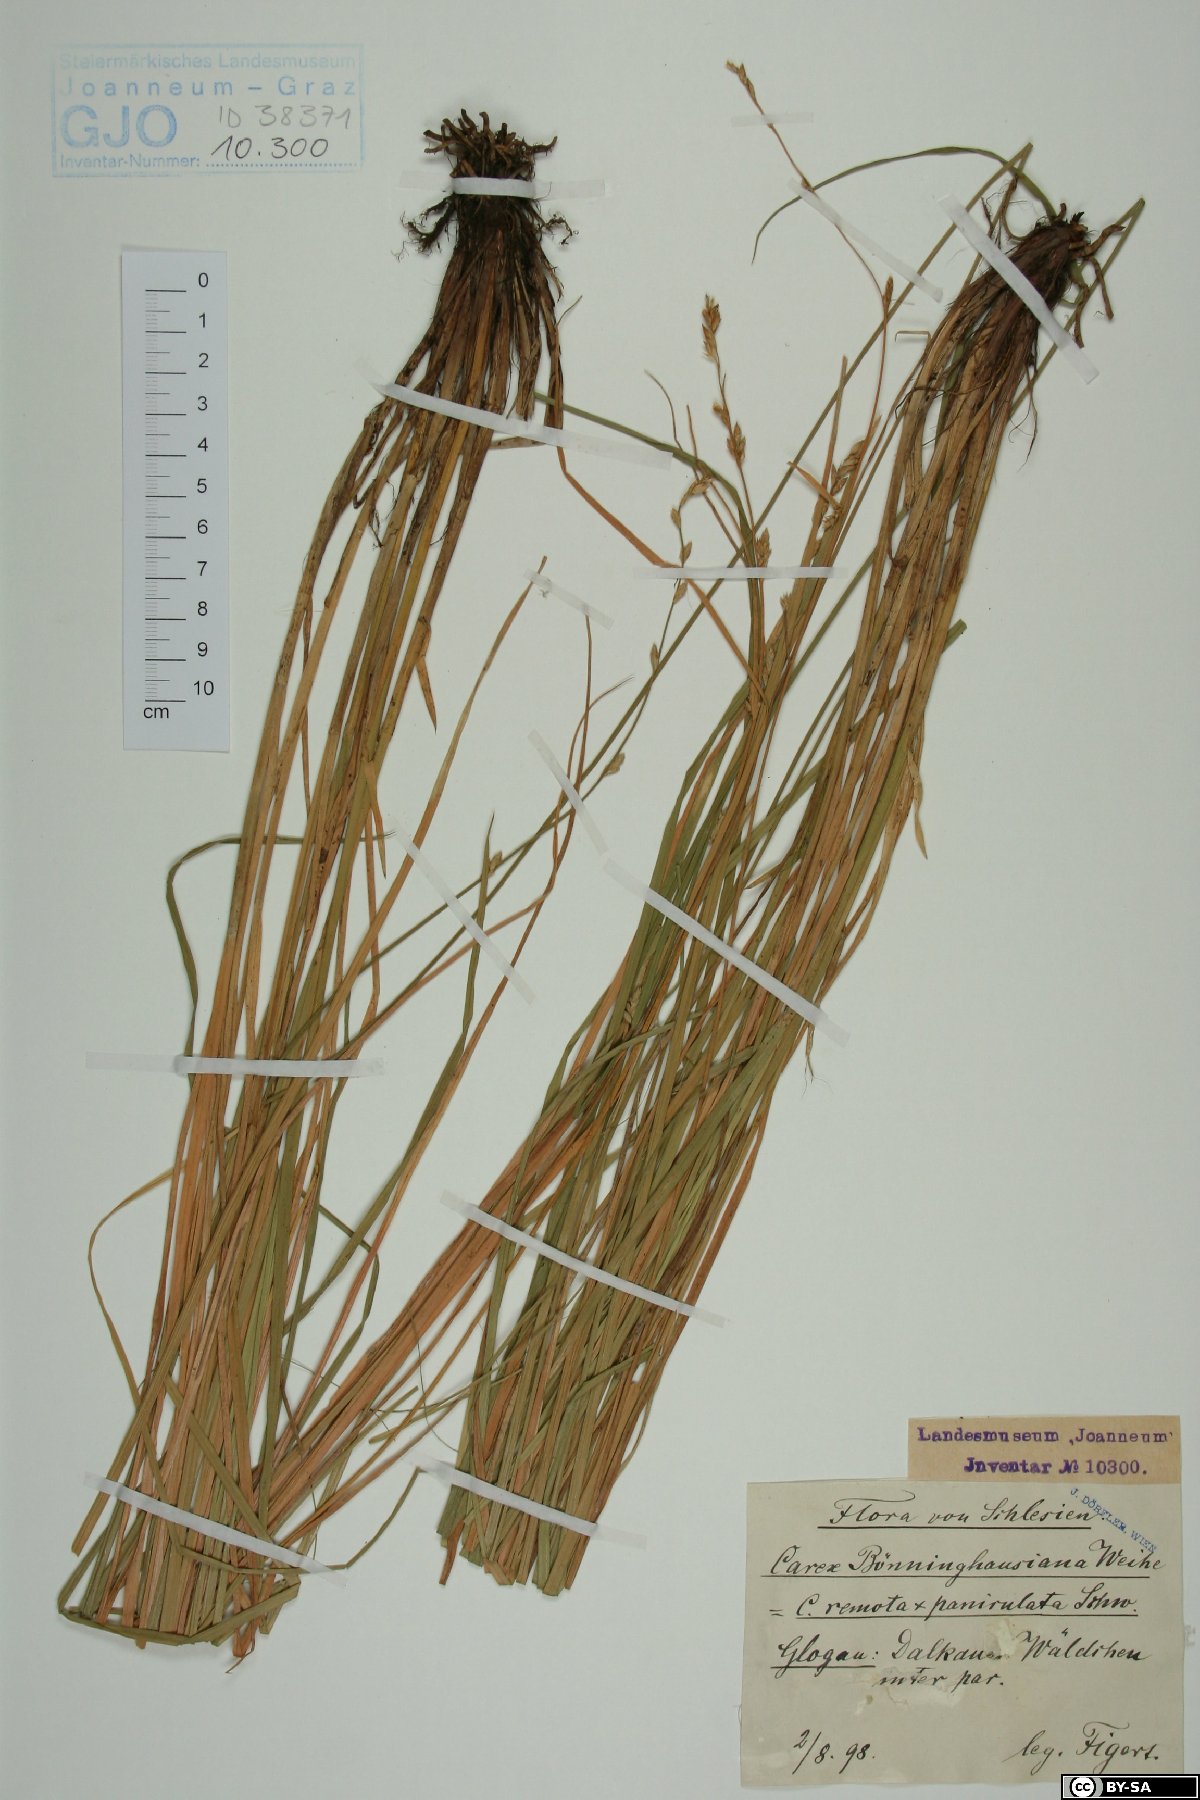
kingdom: Plantae
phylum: Tracheophyta
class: Liliopsida
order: Poales
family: Cyperaceae
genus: Carex
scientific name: Carex boenninghausiana
